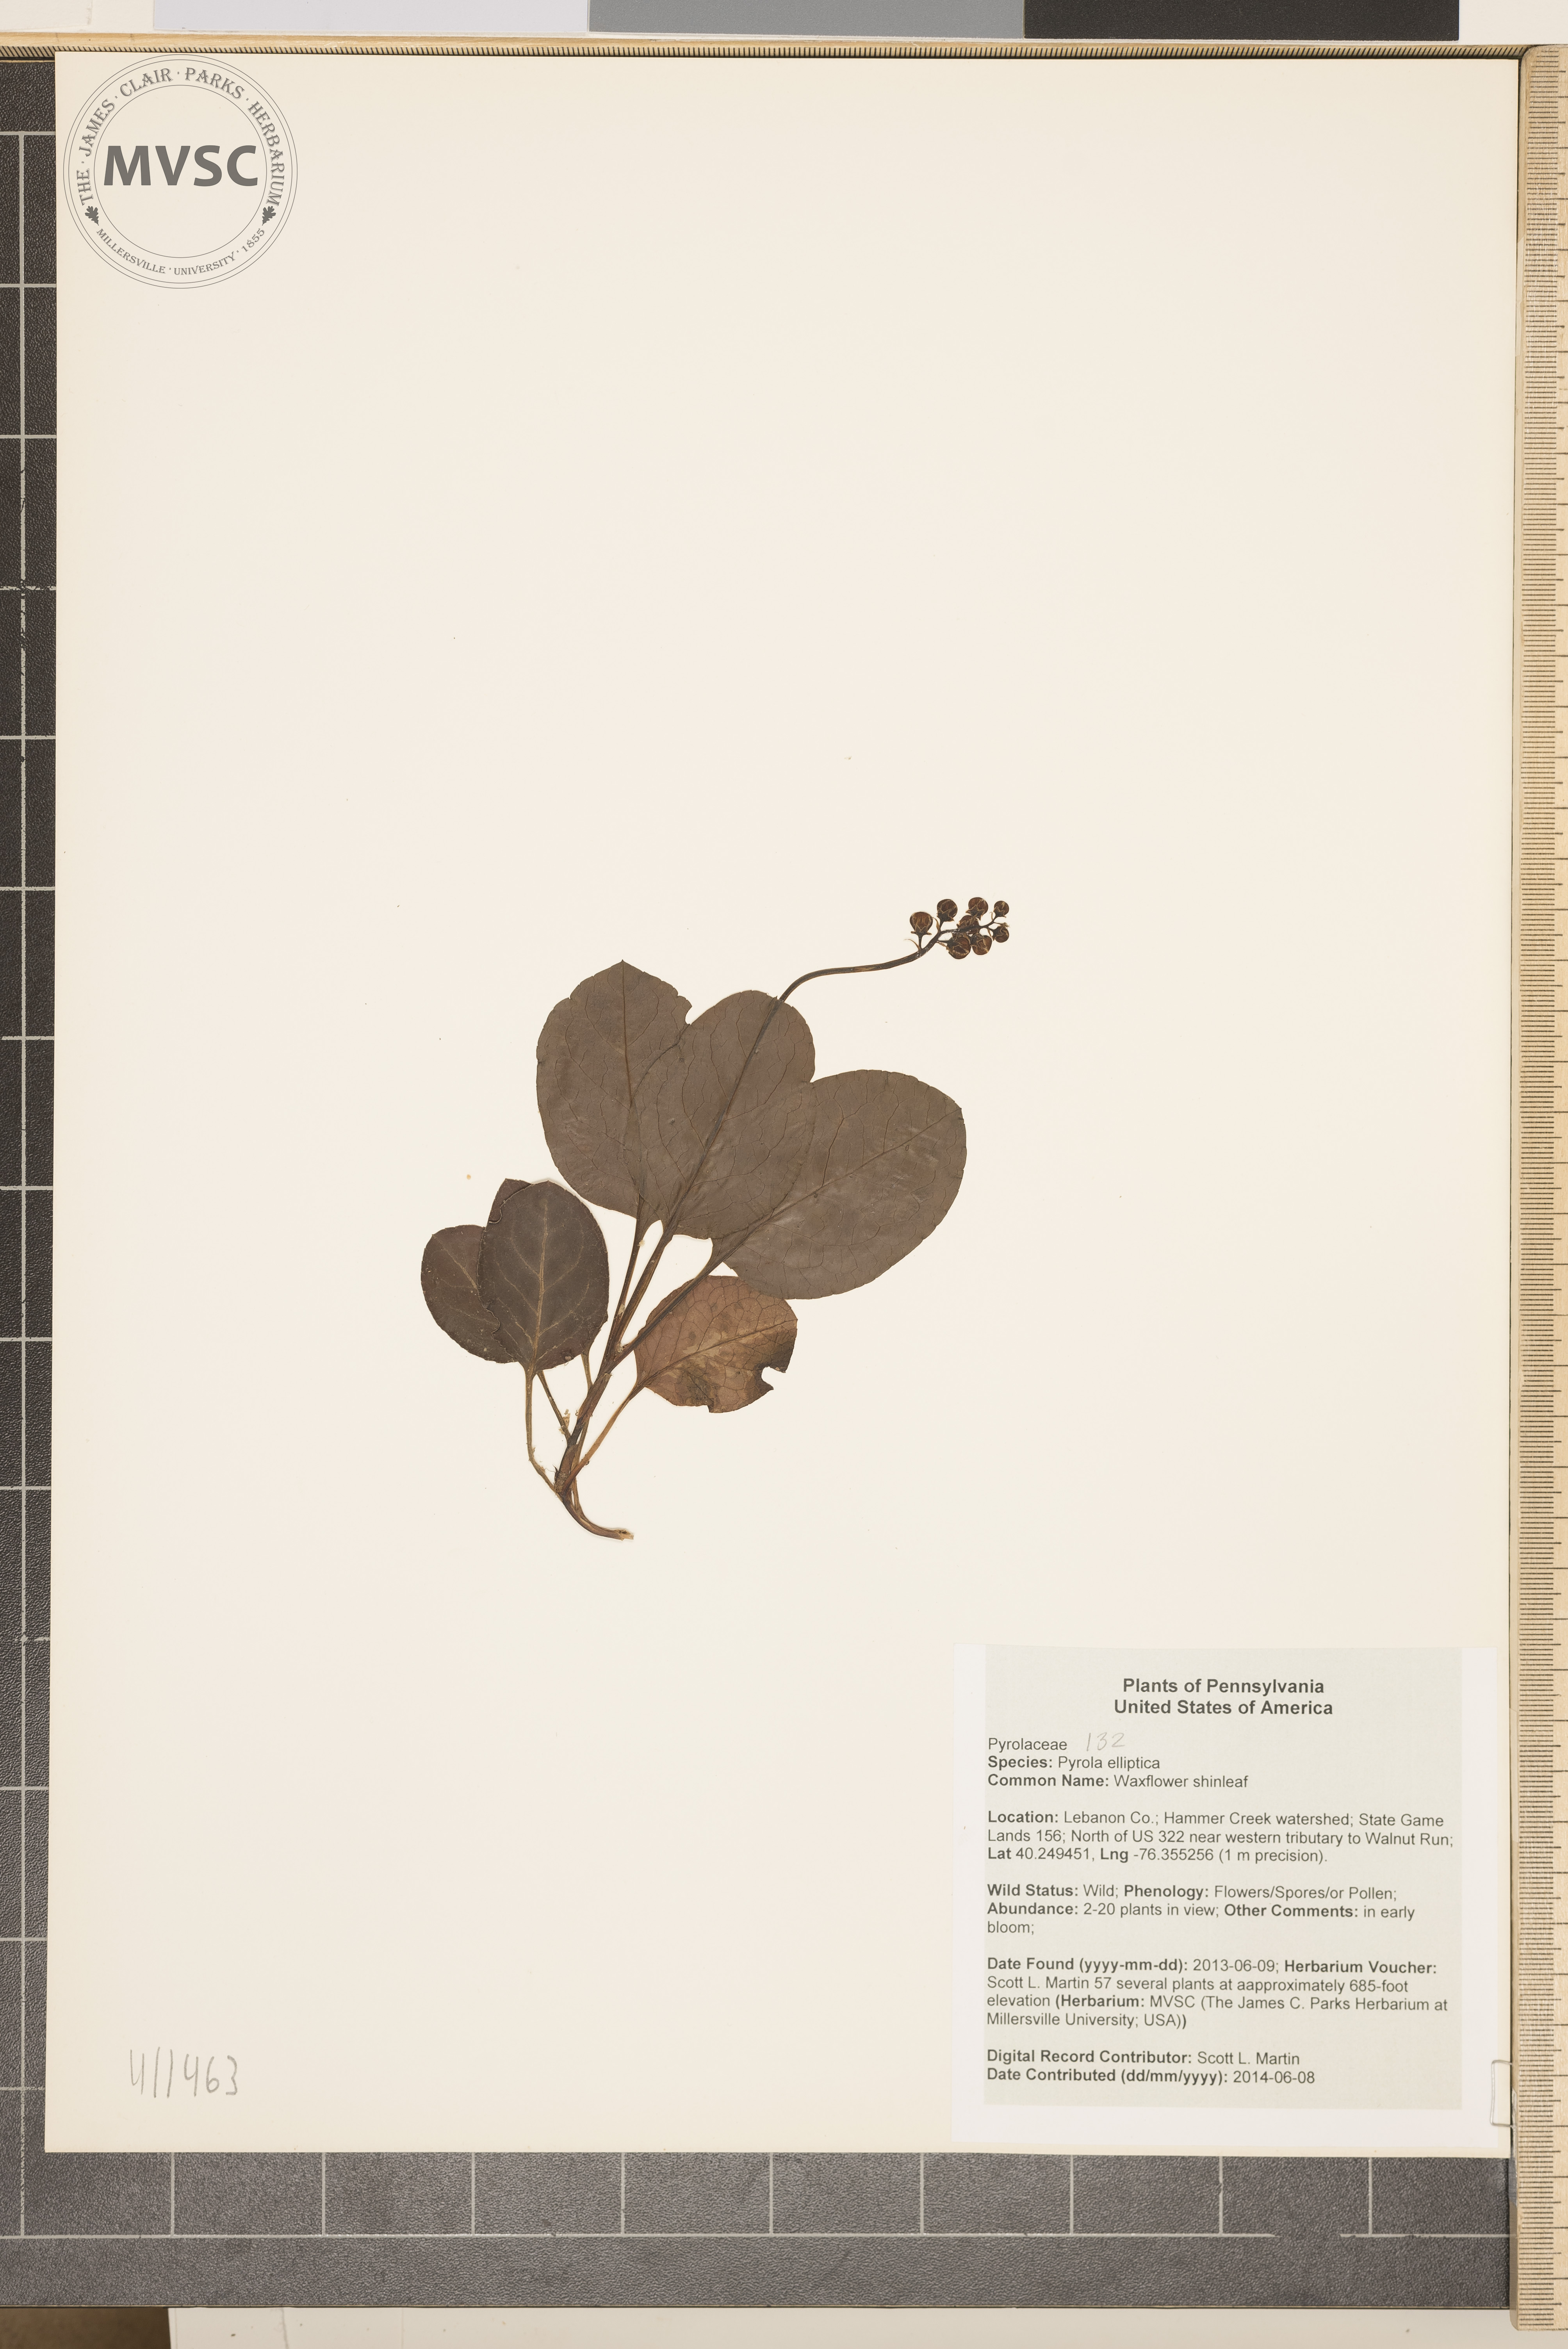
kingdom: Plantae
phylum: Tracheophyta
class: Magnoliopsida
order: Ericales
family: Ericaceae
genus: Pyrola
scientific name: Pyrola elliptica
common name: Waxflower shinleaf
